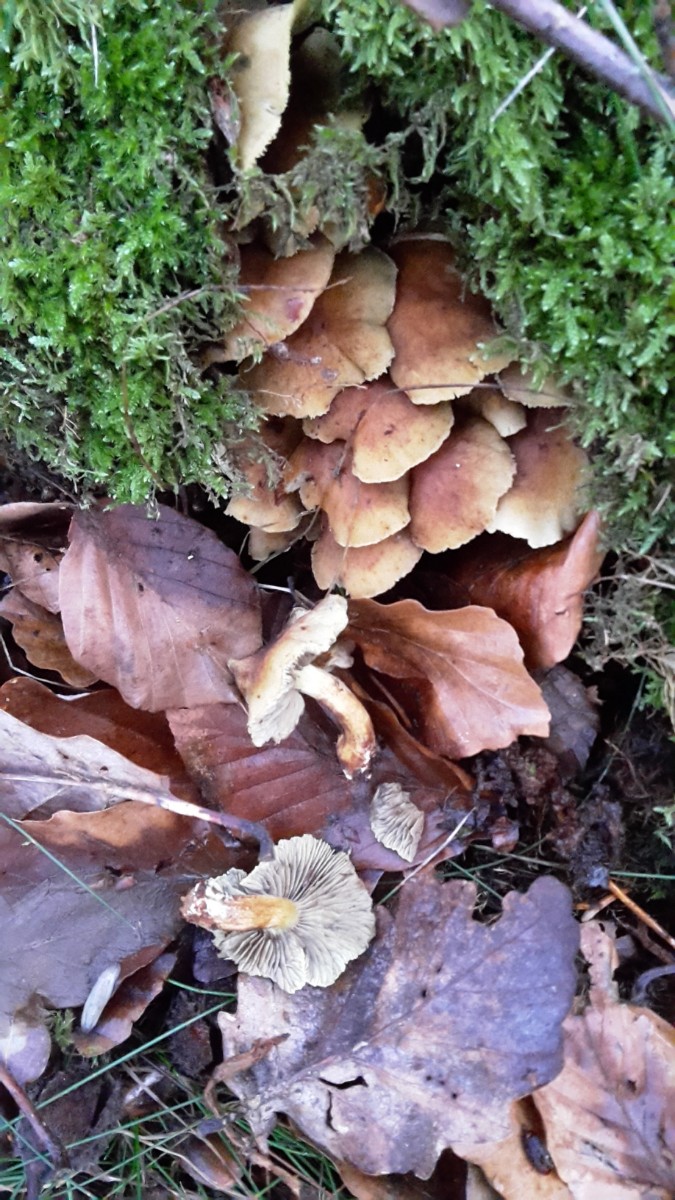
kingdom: Fungi
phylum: Basidiomycota
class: Agaricomycetes
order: Agaricales
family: Strophariaceae
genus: Hypholoma
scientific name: Hypholoma fasciculare
